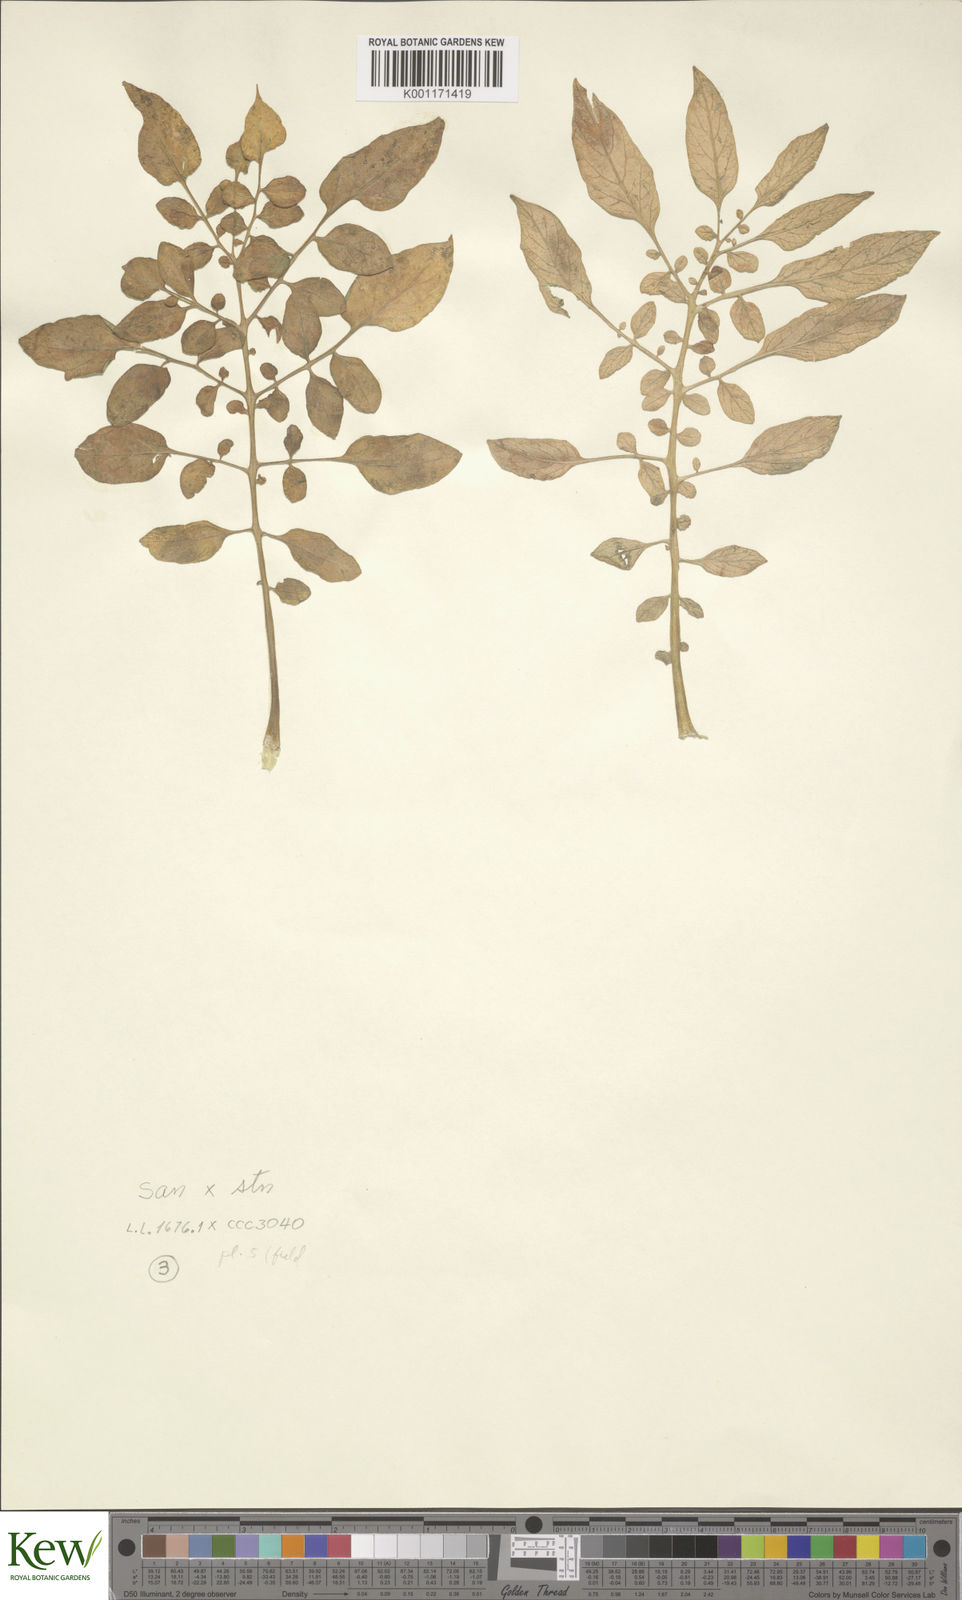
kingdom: Plantae
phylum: Tracheophyta
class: Magnoliopsida
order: Solanales
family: Solanaceae
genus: Solanum
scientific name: Solanum laxissimum
